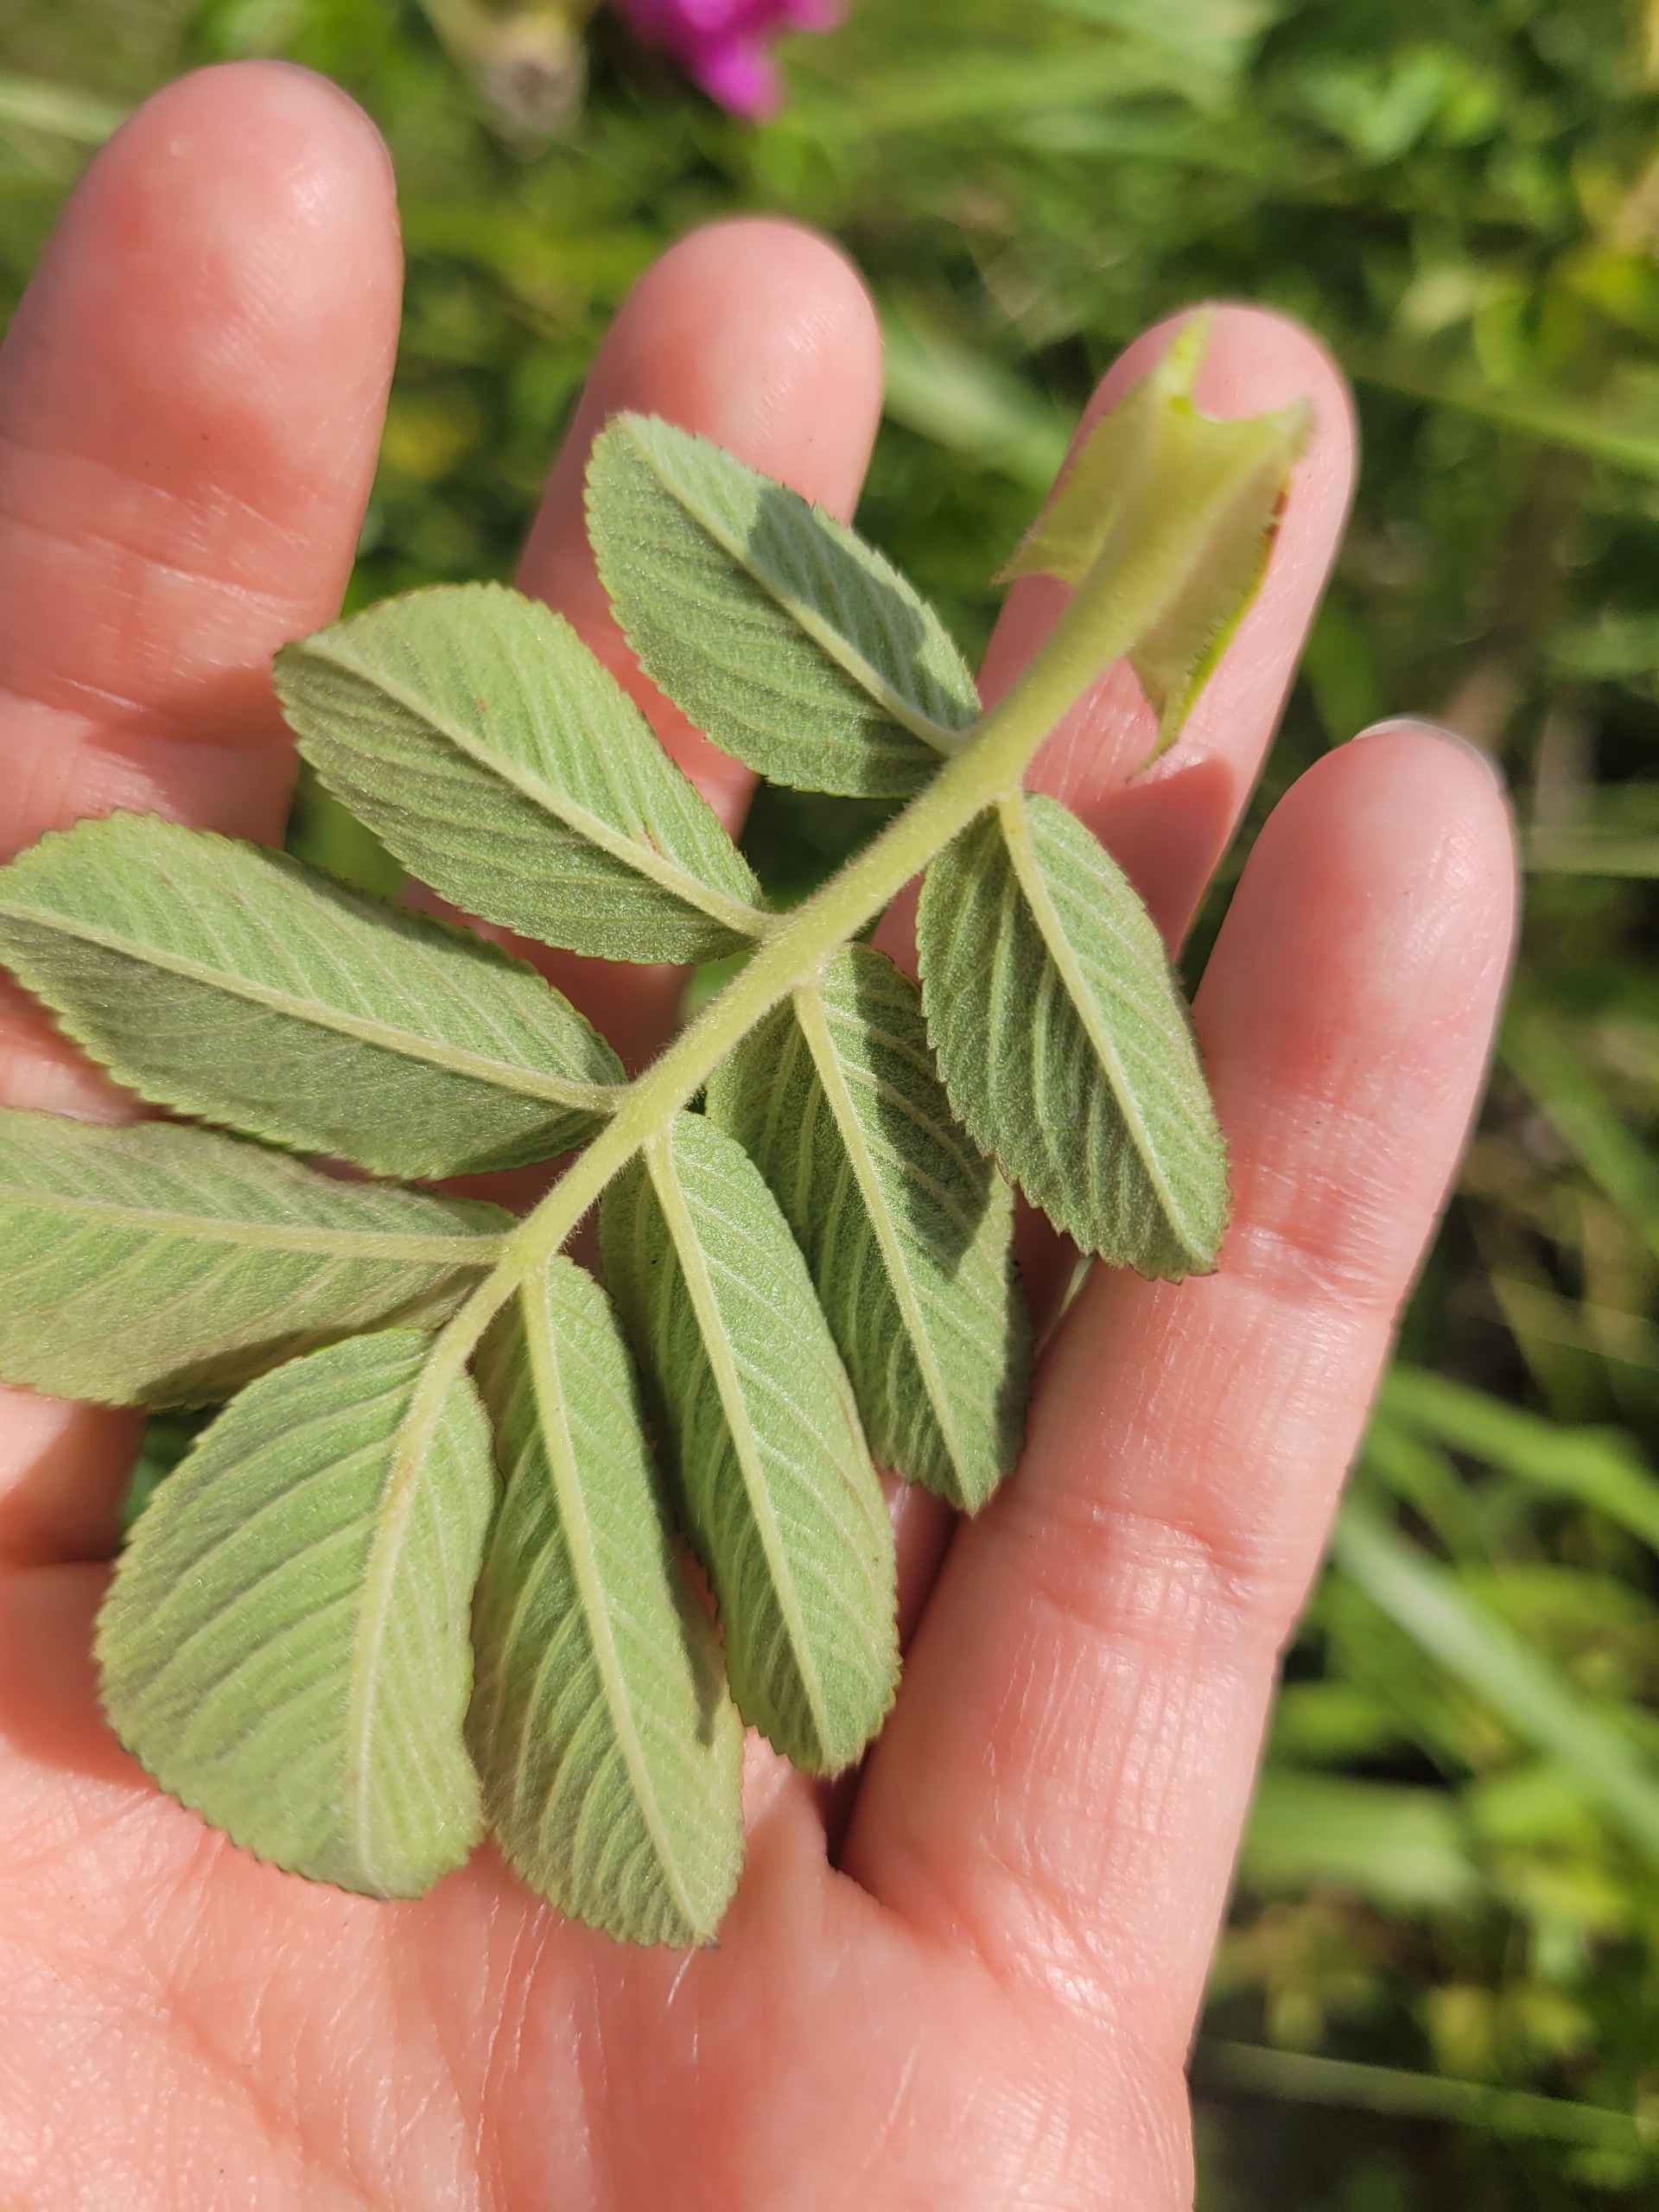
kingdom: Plantae
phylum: Tracheophyta
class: Magnoliopsida
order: Rosales
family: Rosaceae
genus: Rosa
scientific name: Rosa rugosa
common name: Rynket rose
